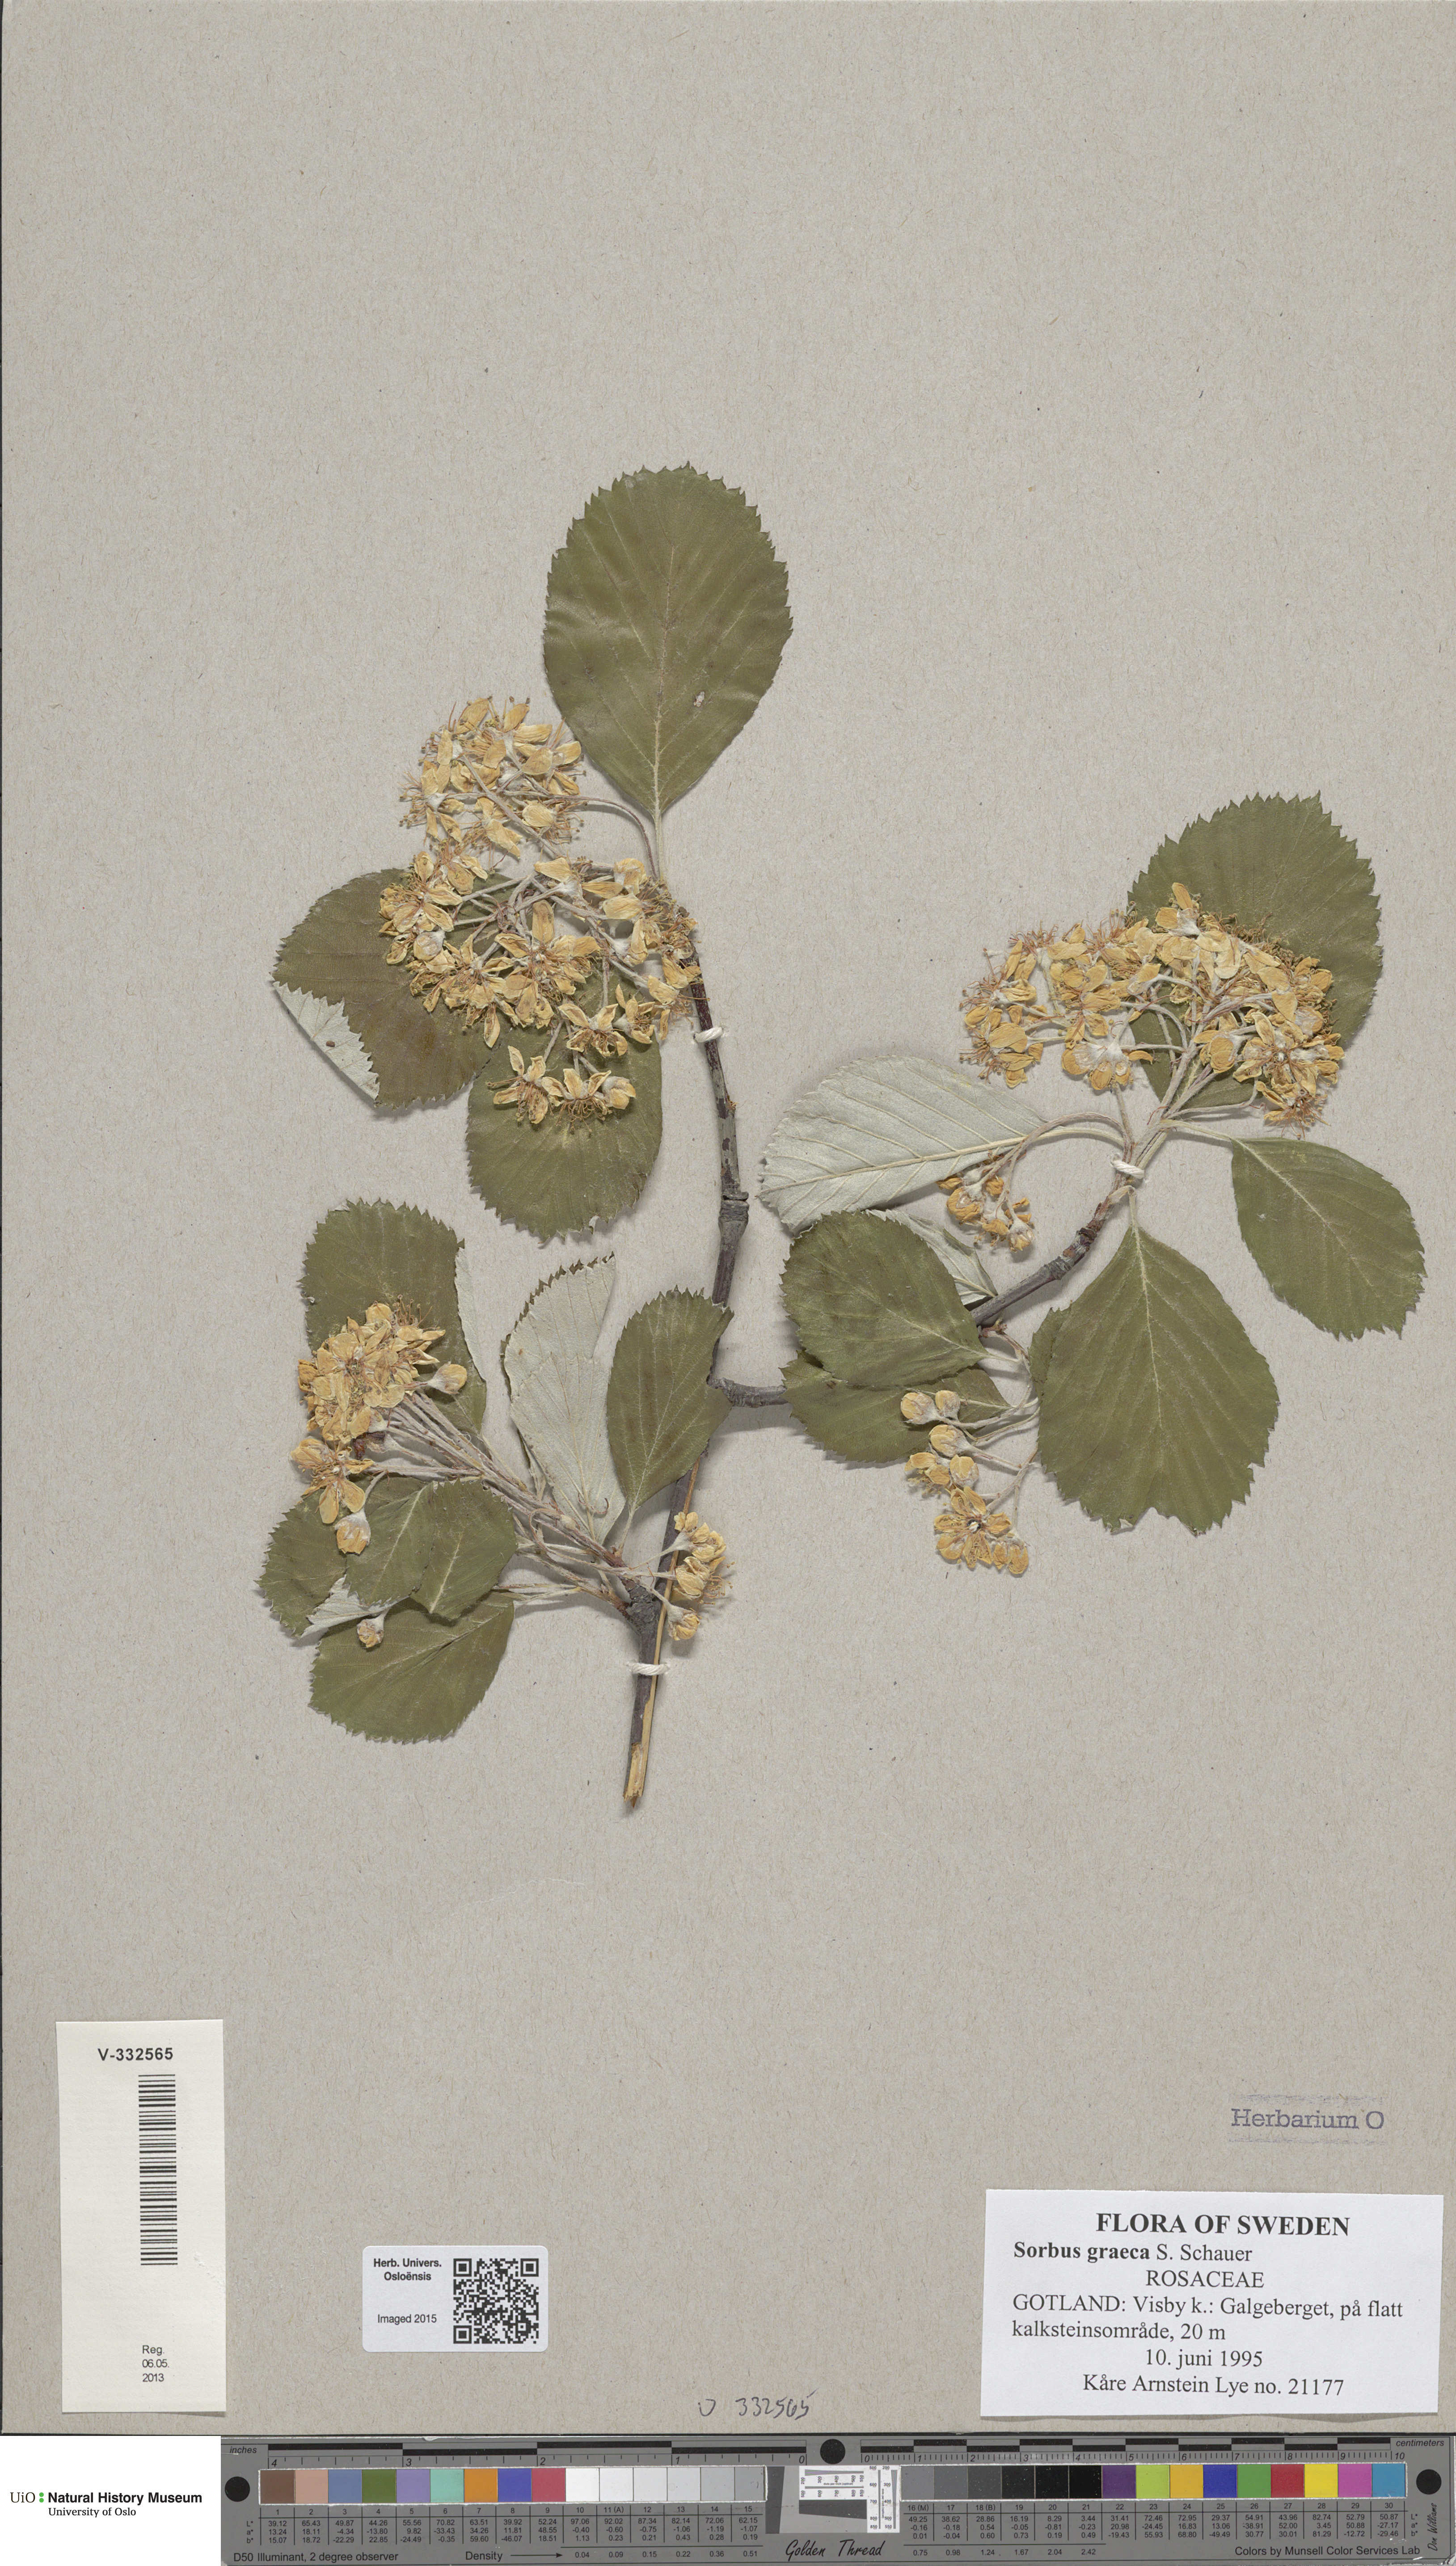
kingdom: Plantae
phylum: Tracheophyta
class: Magnoliopsida
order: Rosales
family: Rosaceae
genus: Aria
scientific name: Aria graeca
